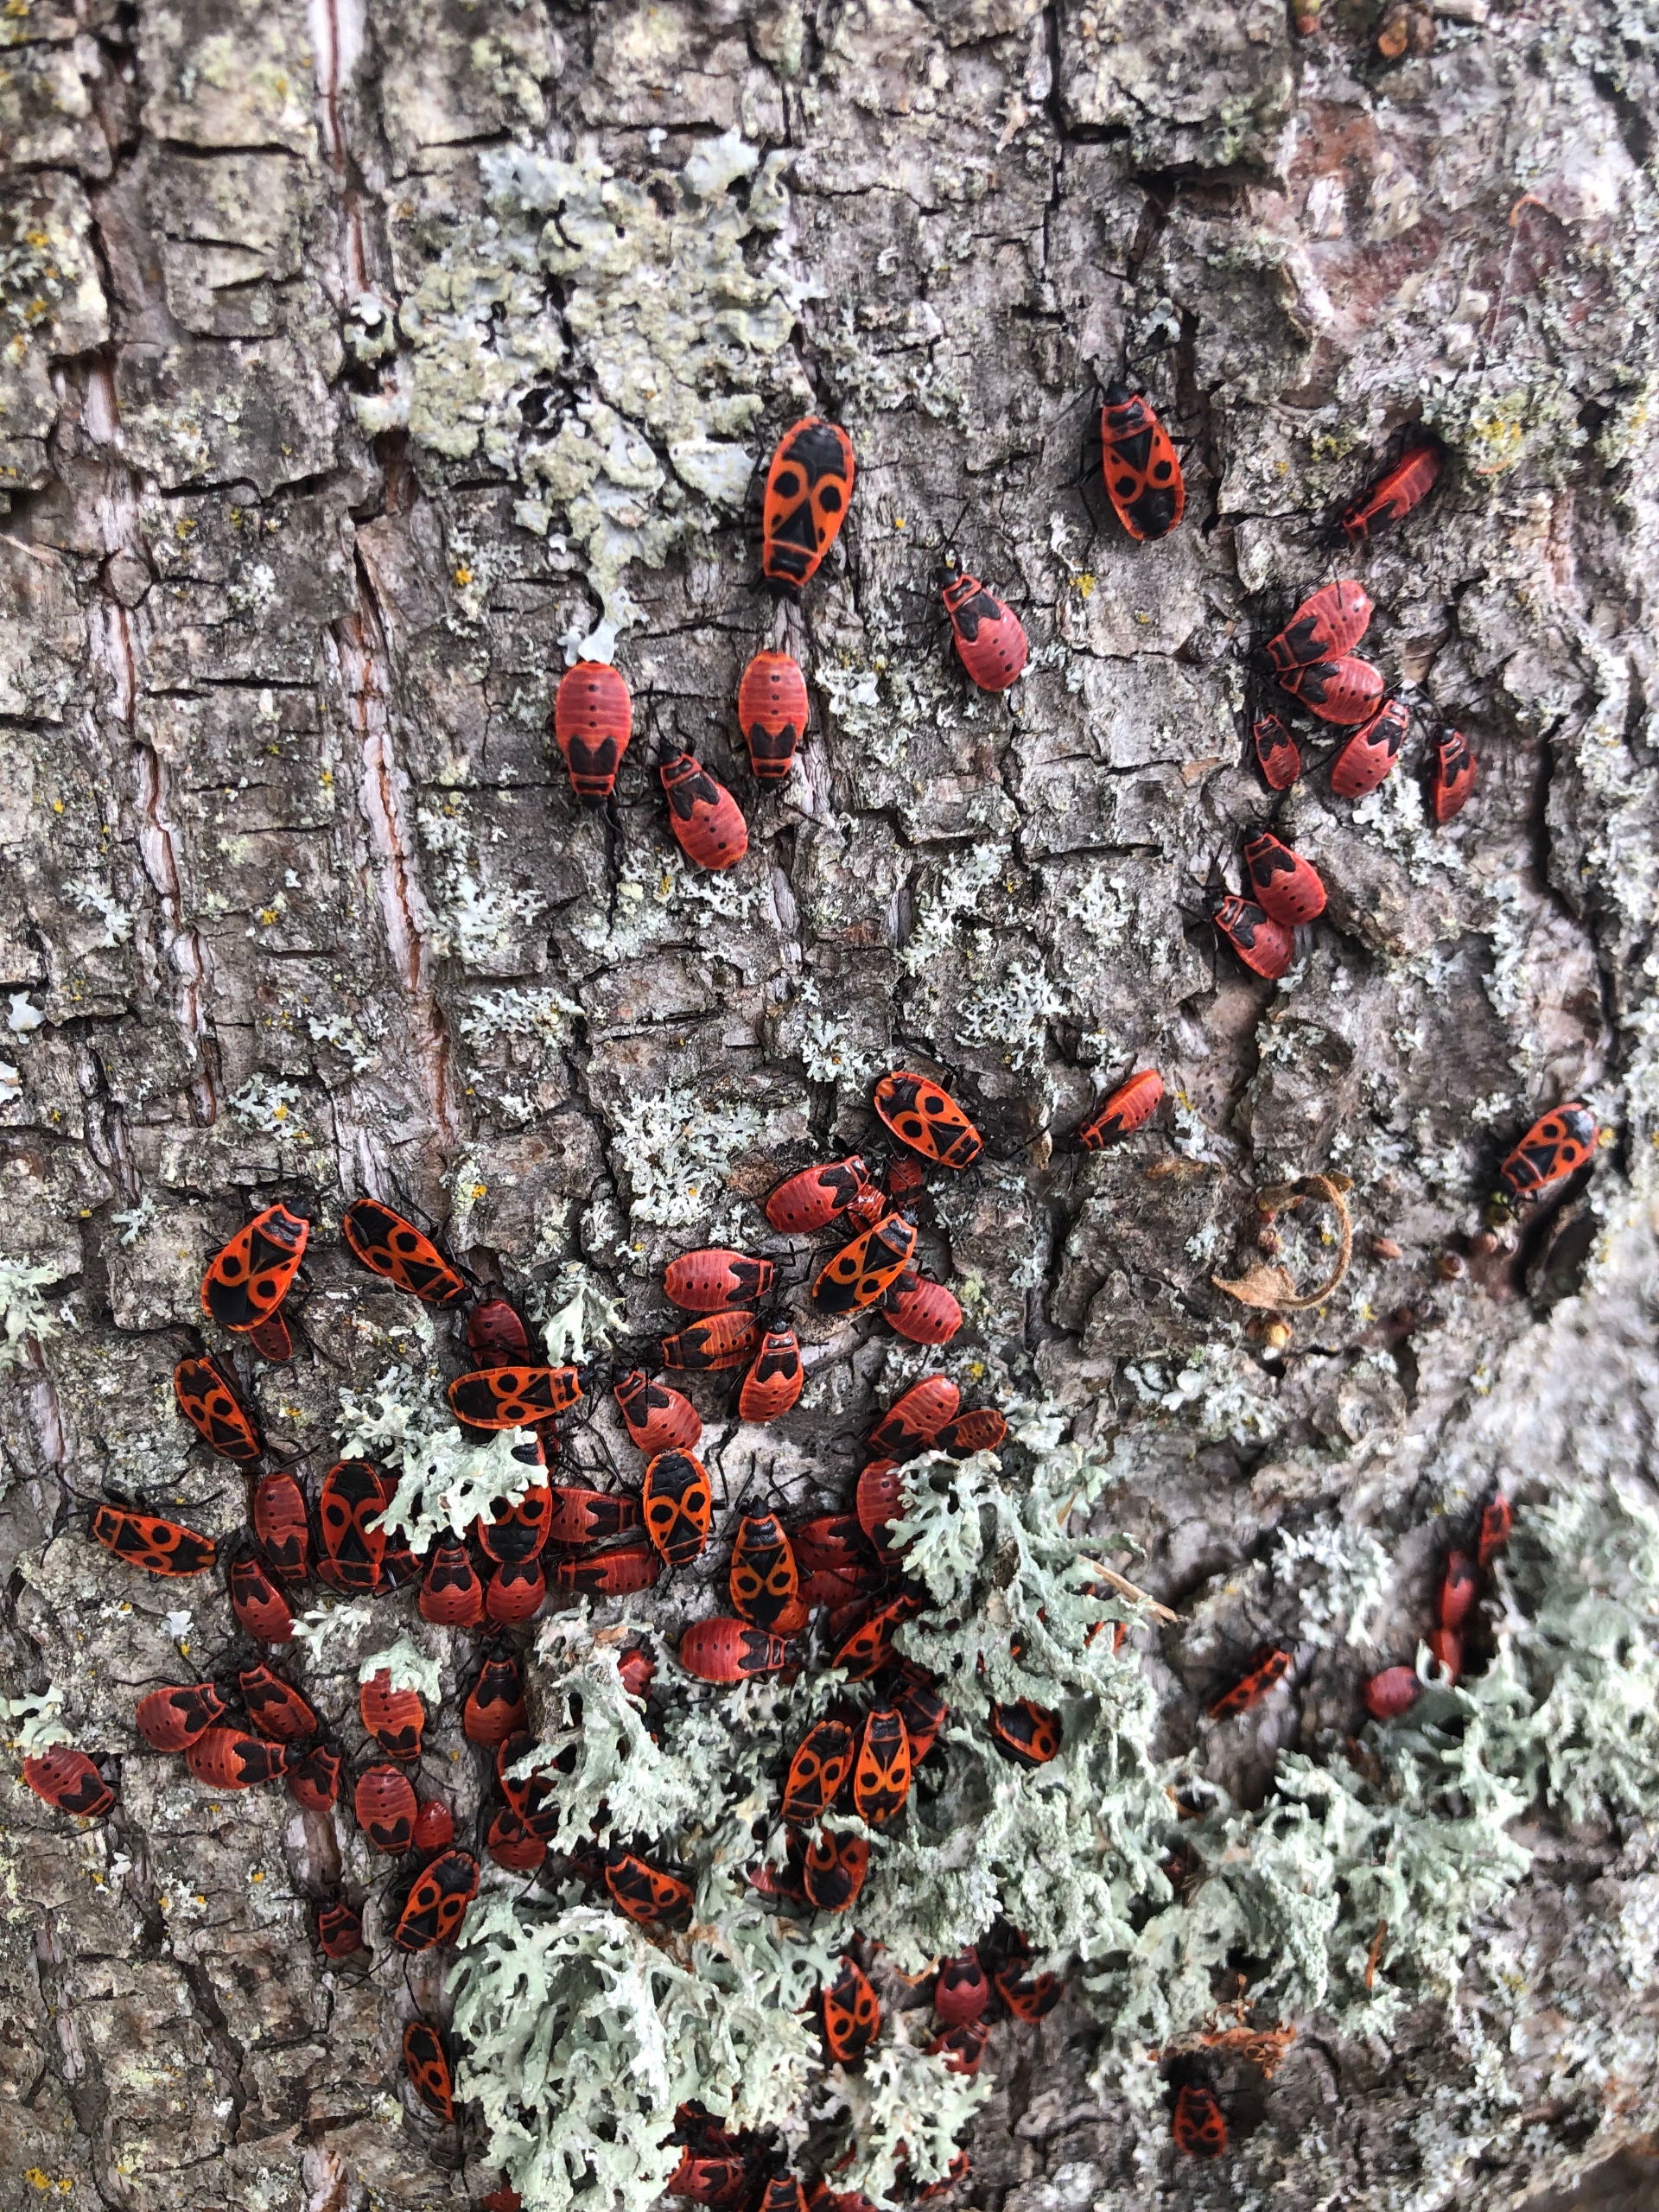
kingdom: Animalia
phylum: Arthropoda
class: Insecta
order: Hemiptera
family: Pyrrhocoridae
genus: Pyrrhocoris
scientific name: Pyrrhocoris apterus
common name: Ildtæge
